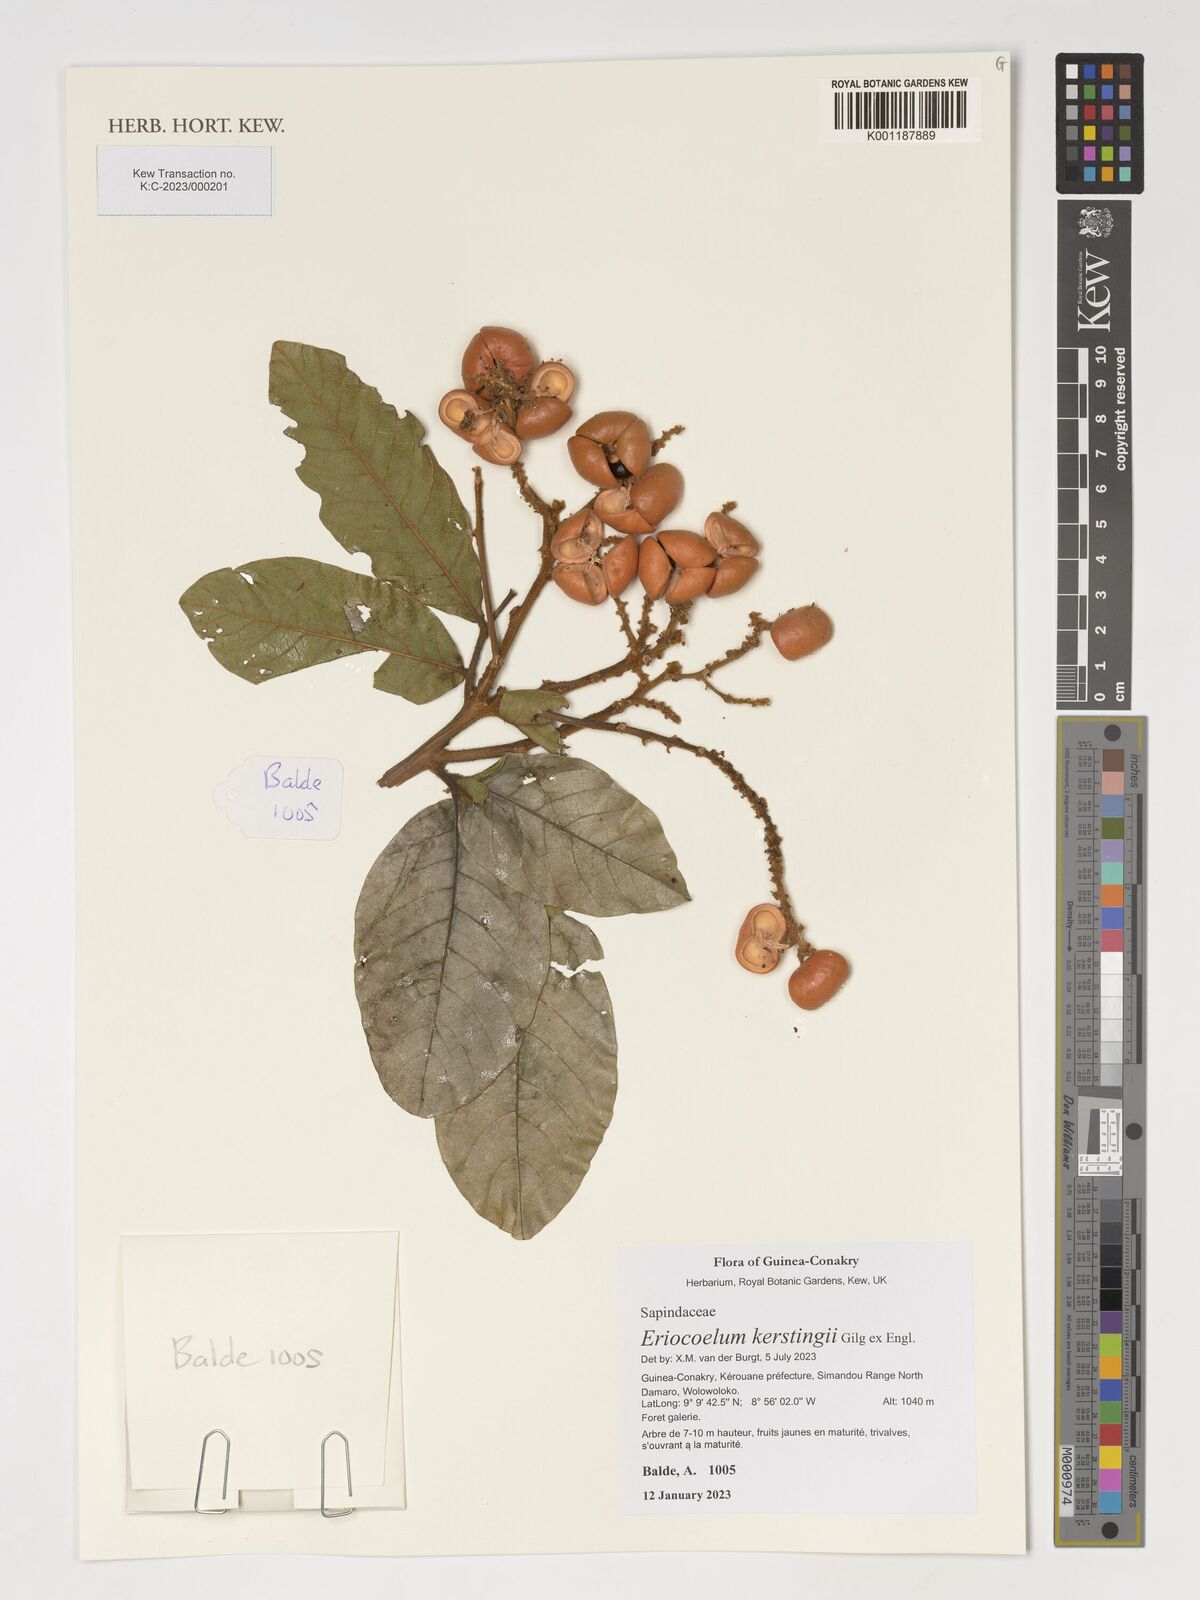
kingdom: Plantae
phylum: Tracheophyta
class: Magnoliopsida
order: Sapindales
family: Sapindaceae
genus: Eriocoelum
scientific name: Eriocoelum kerstingii
